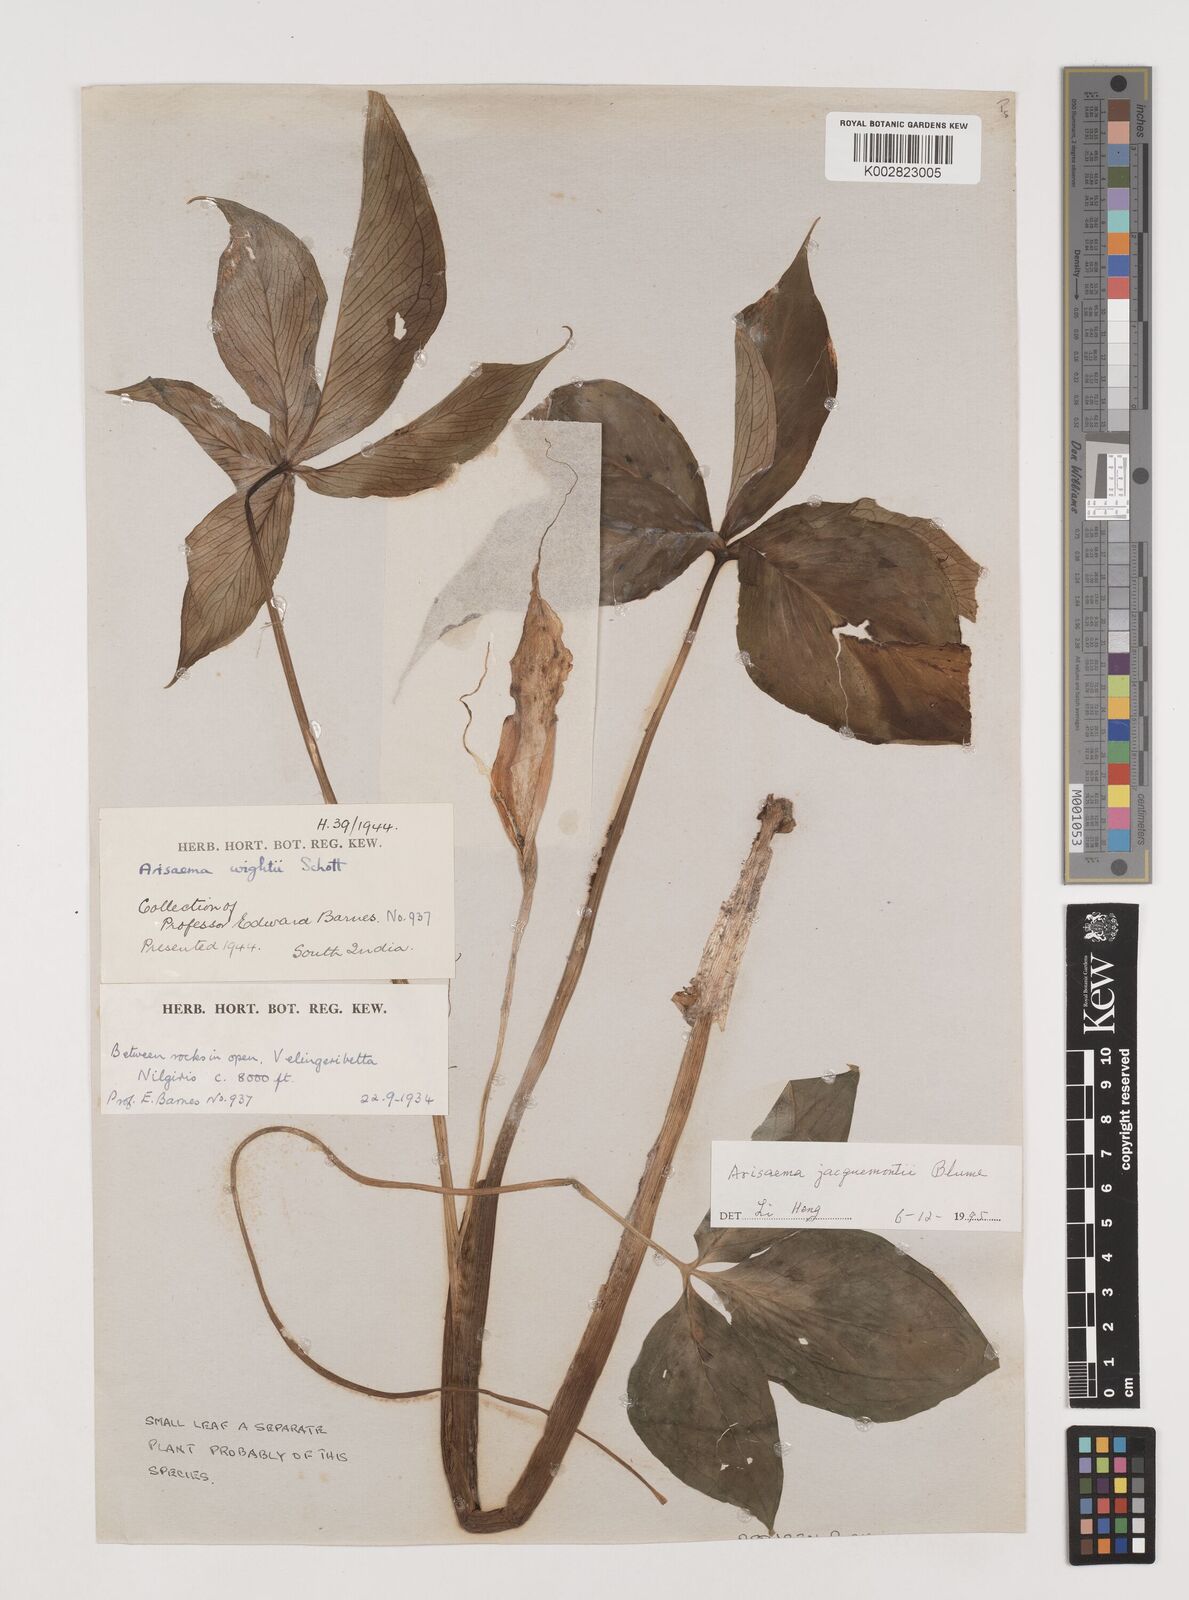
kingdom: Plantae
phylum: Tracheophyta
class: Liliopsida
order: Alismatales
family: Araceae
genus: Arisaema
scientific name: Arisaema jacquemontii
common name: Jacquemont's cobra-lily
